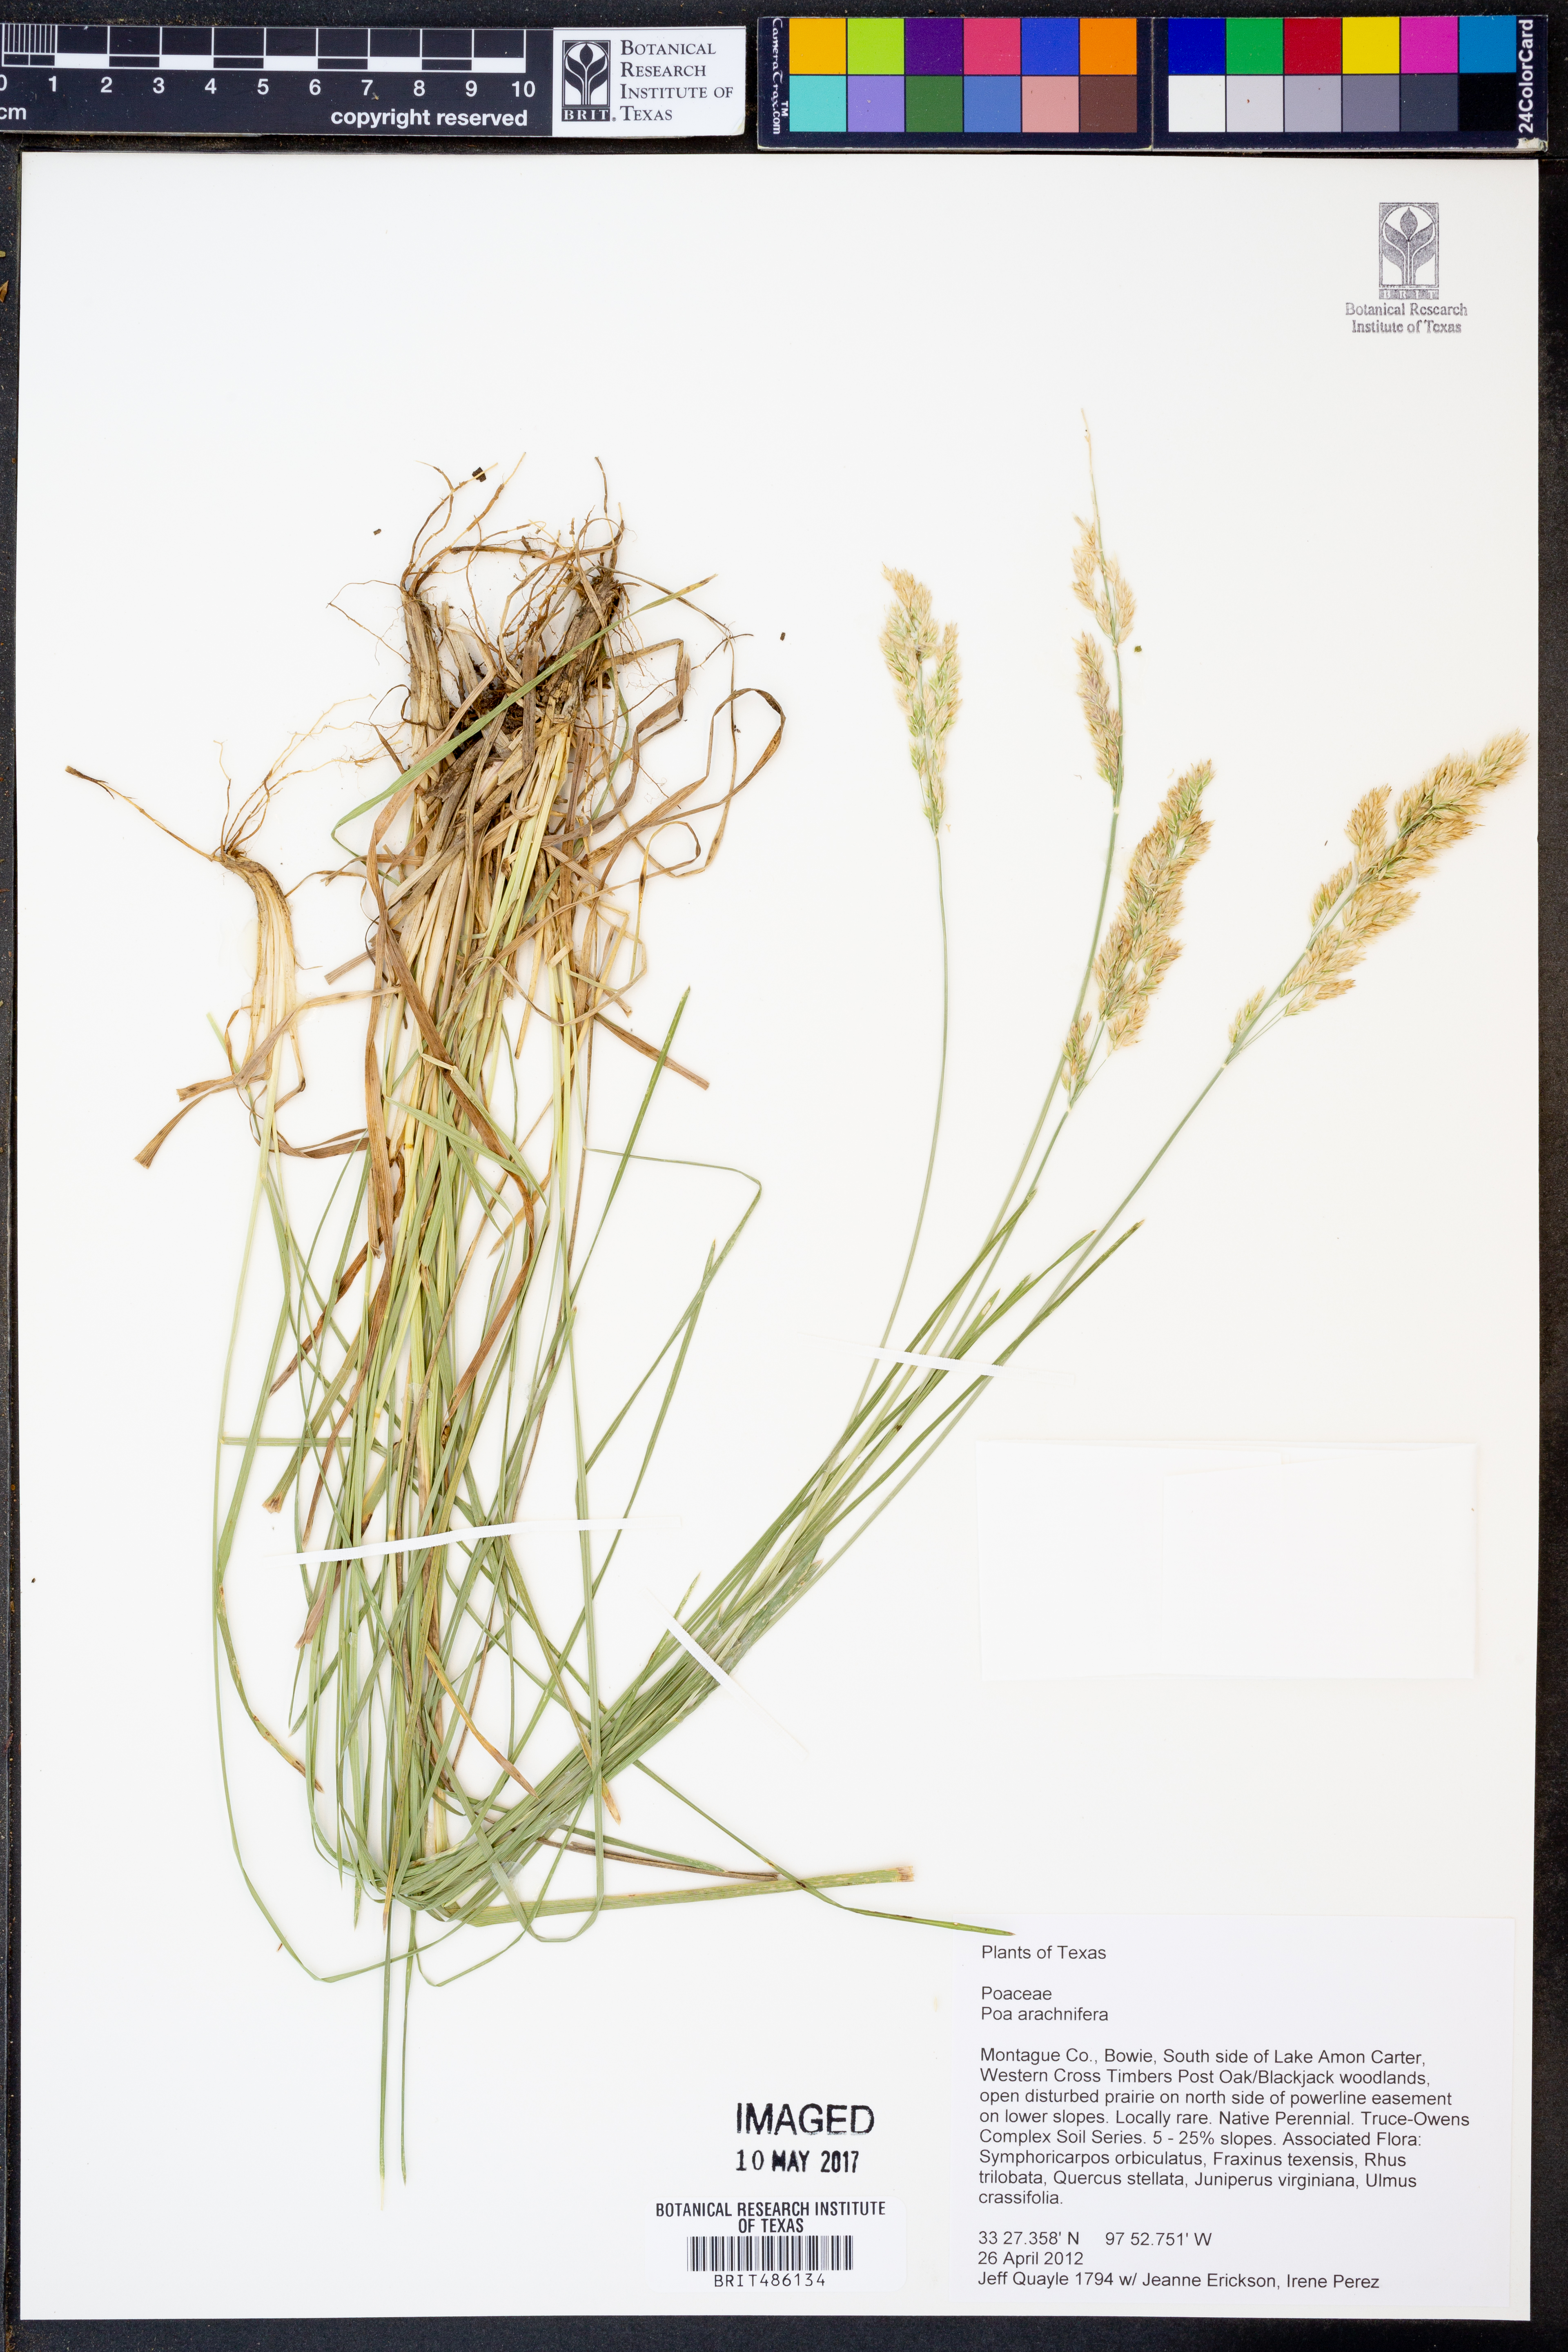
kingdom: Plantae
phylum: Tracheophyta
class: Liliopsida
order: Poales
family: Poaceae
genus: Poa
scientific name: Poa arachnifera
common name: Texas bluegrass
